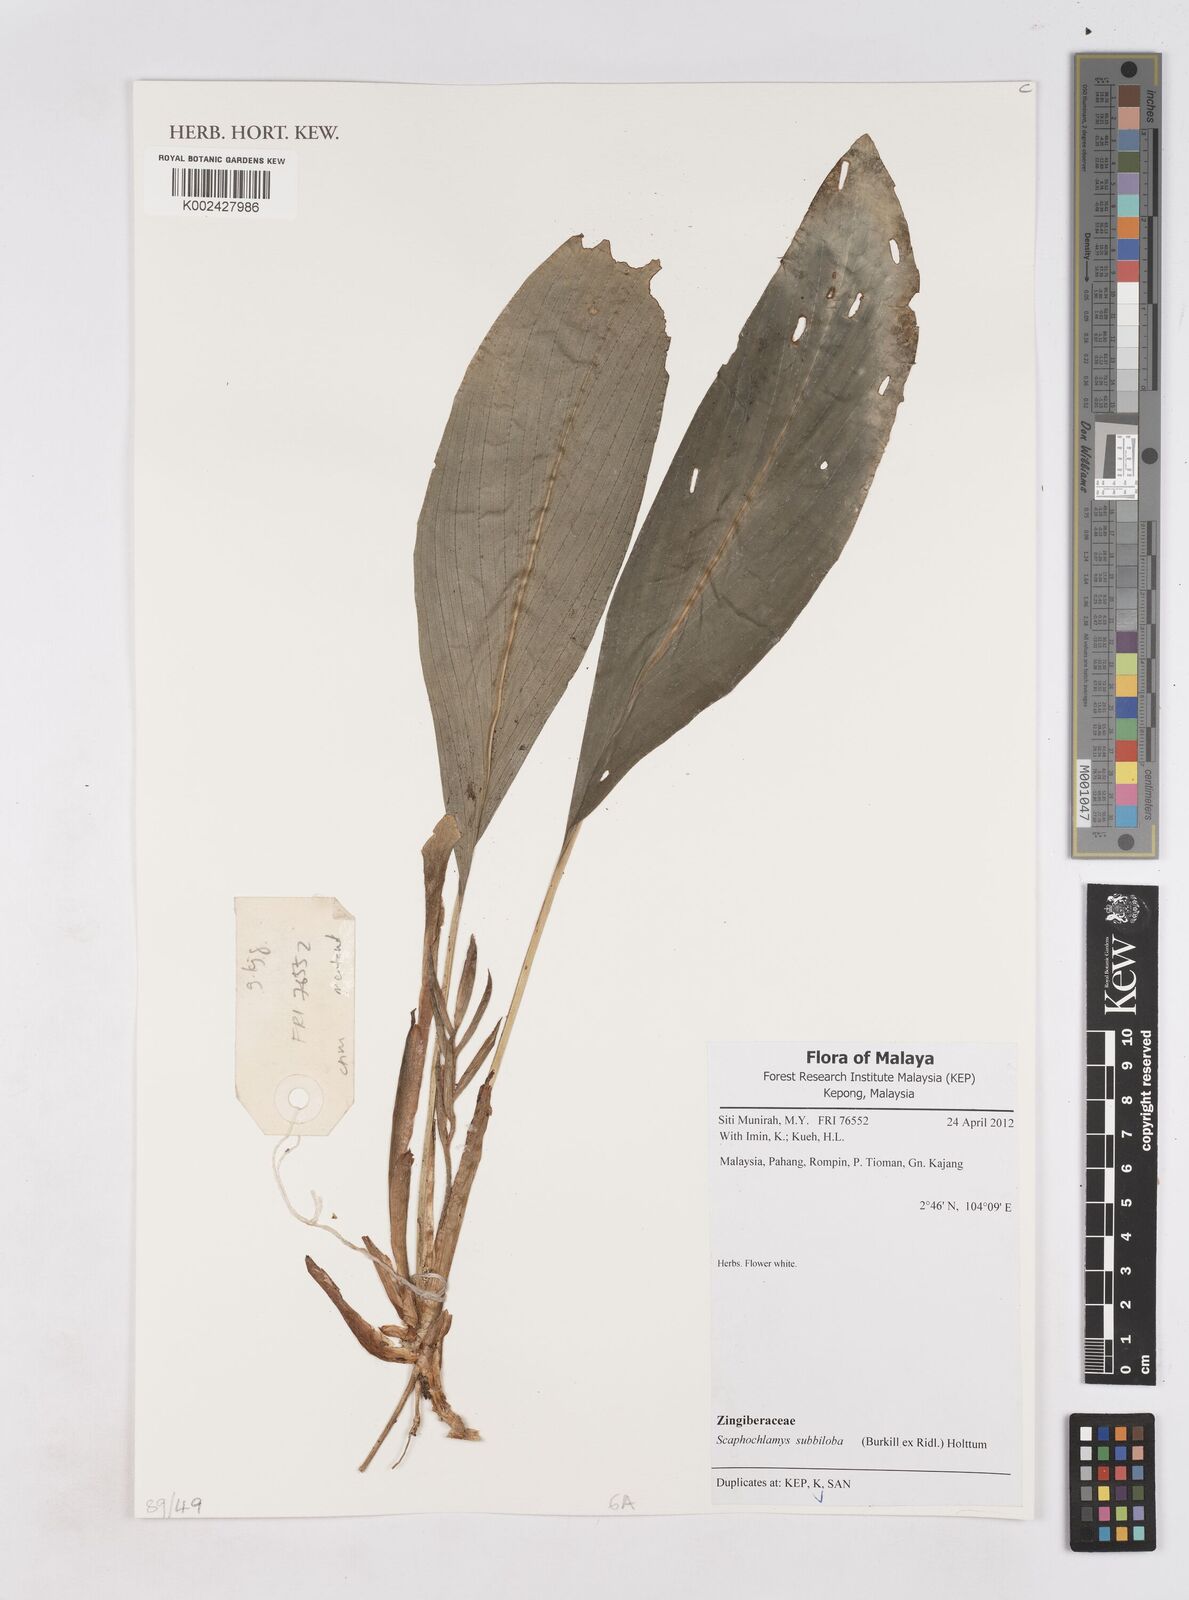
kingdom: Plantae
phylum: Tracheophyta
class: Liliopsida
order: Zingiberales
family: Zingiberaceae
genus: Scaphochlamys
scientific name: Scaphochlamys subbiloba
